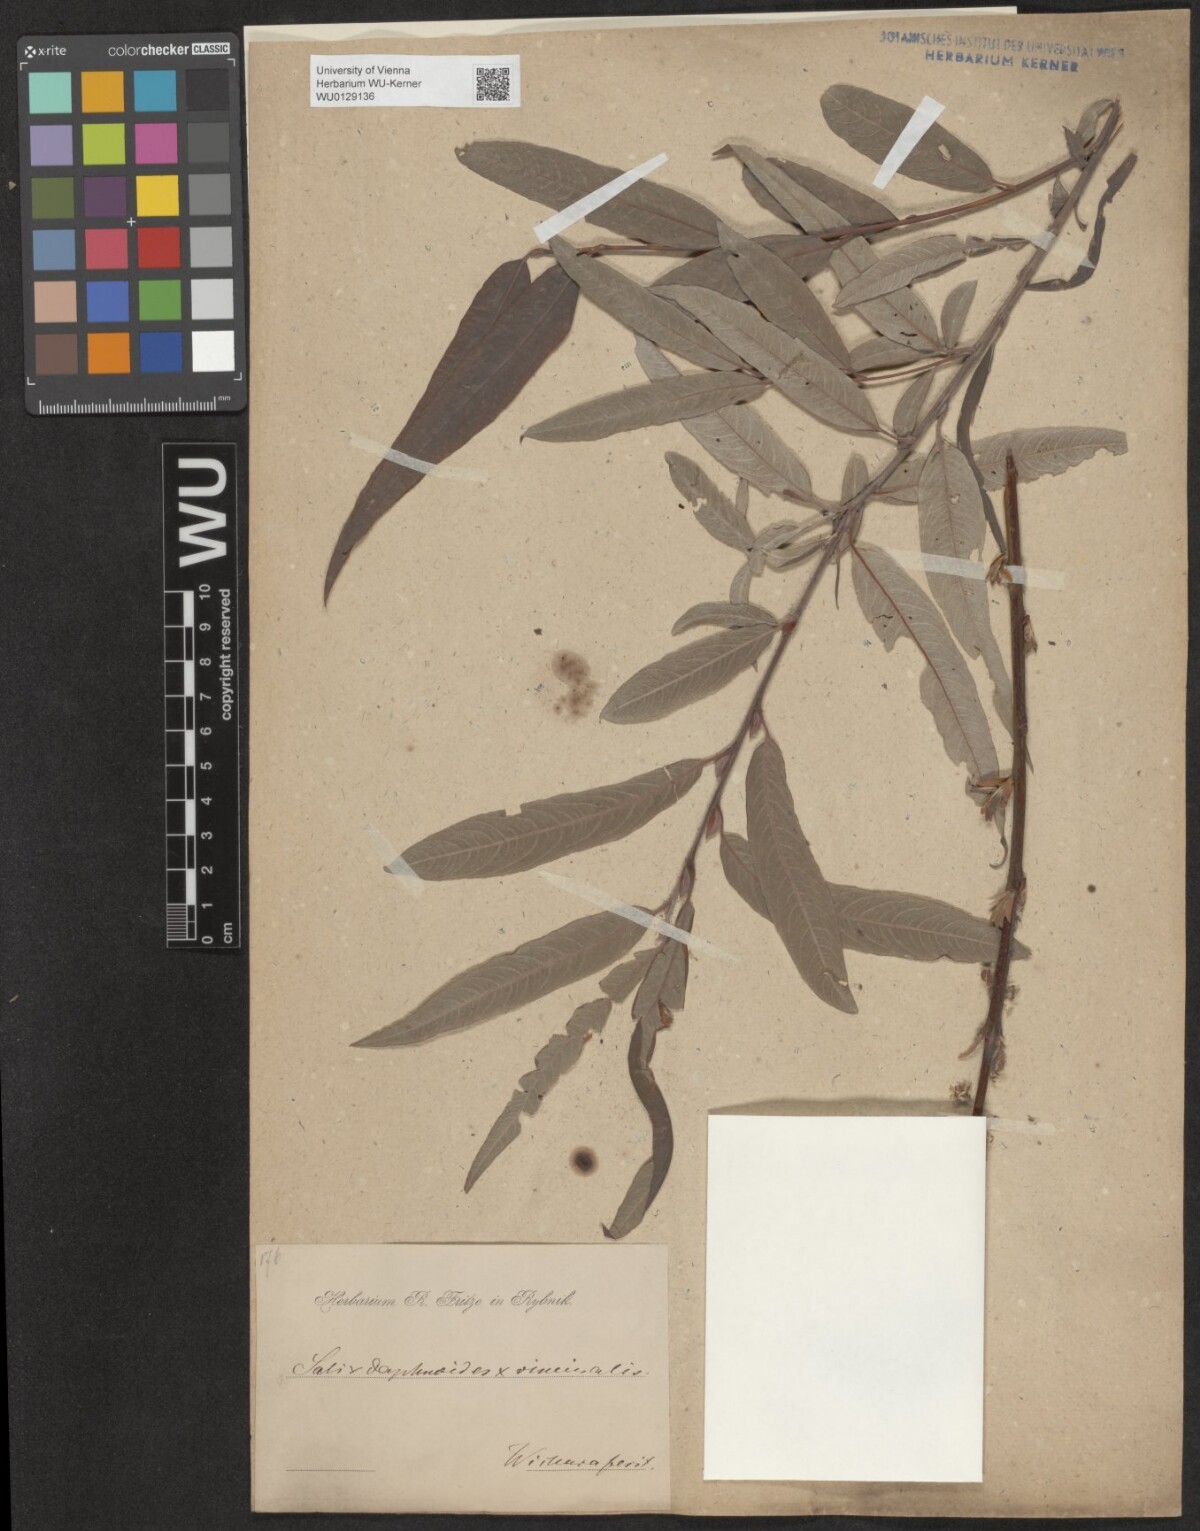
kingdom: Plantae
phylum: Tracheophyta
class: Magnoliopsida
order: Malpighiales
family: Salicaceae
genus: Salix
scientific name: Salix digenea
